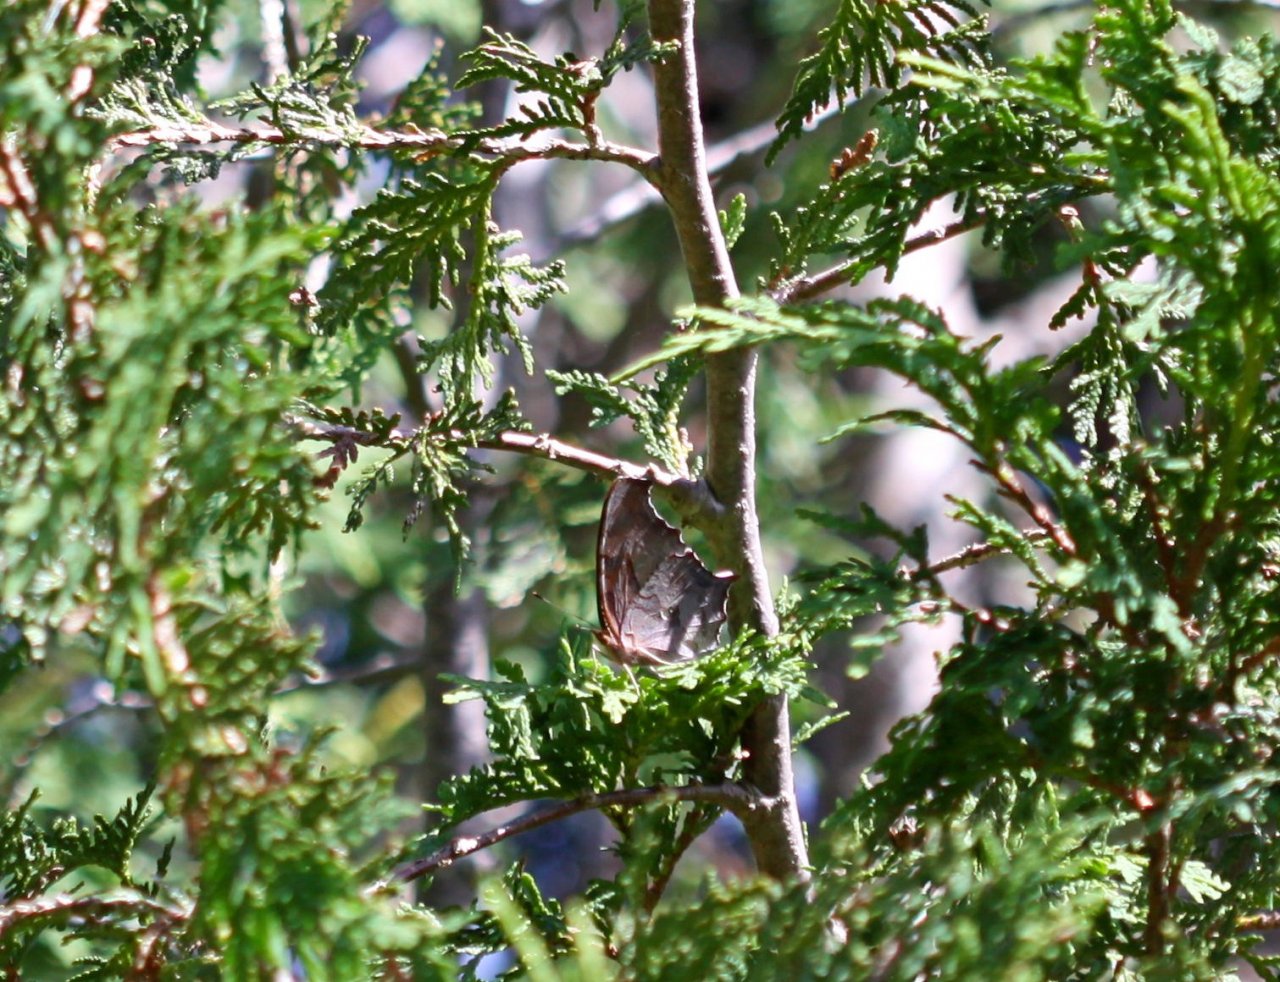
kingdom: Animalia
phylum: Arthropoda
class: Insecta
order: Lepidoptera
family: Nymphalidae
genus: Polygonia
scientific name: Polygonia interrogationis
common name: Question Mark
